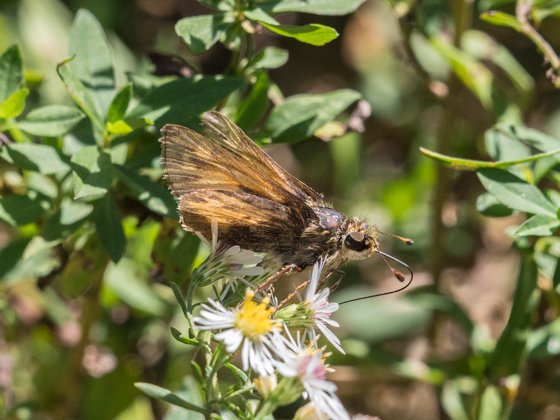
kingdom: Animalia
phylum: Arthropoda
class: Insecta
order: Lepidoptera
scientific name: Lepidoptera
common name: Butterflies
